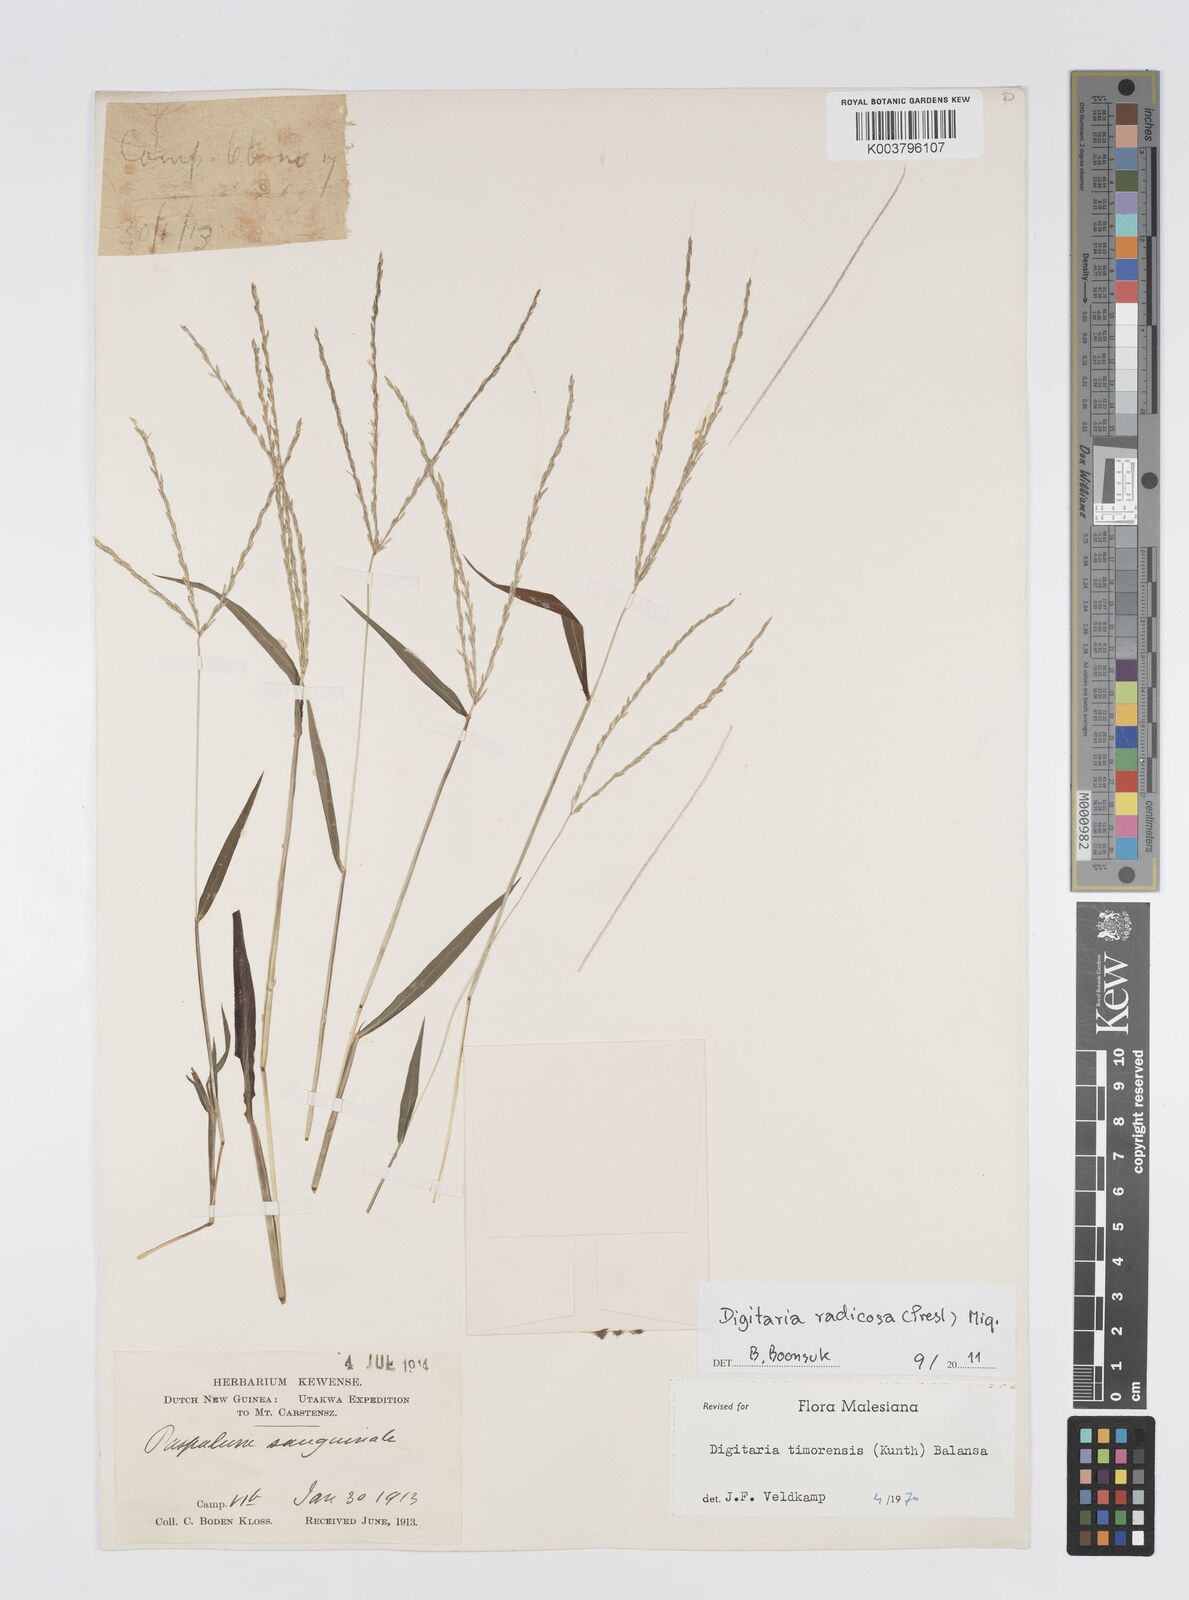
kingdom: Plantae
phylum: Tracheophyta
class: Liliopsida
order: Poales
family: Poaceae
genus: Digitaria
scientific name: Digitaria radicosa
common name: Trailing crabgrass
